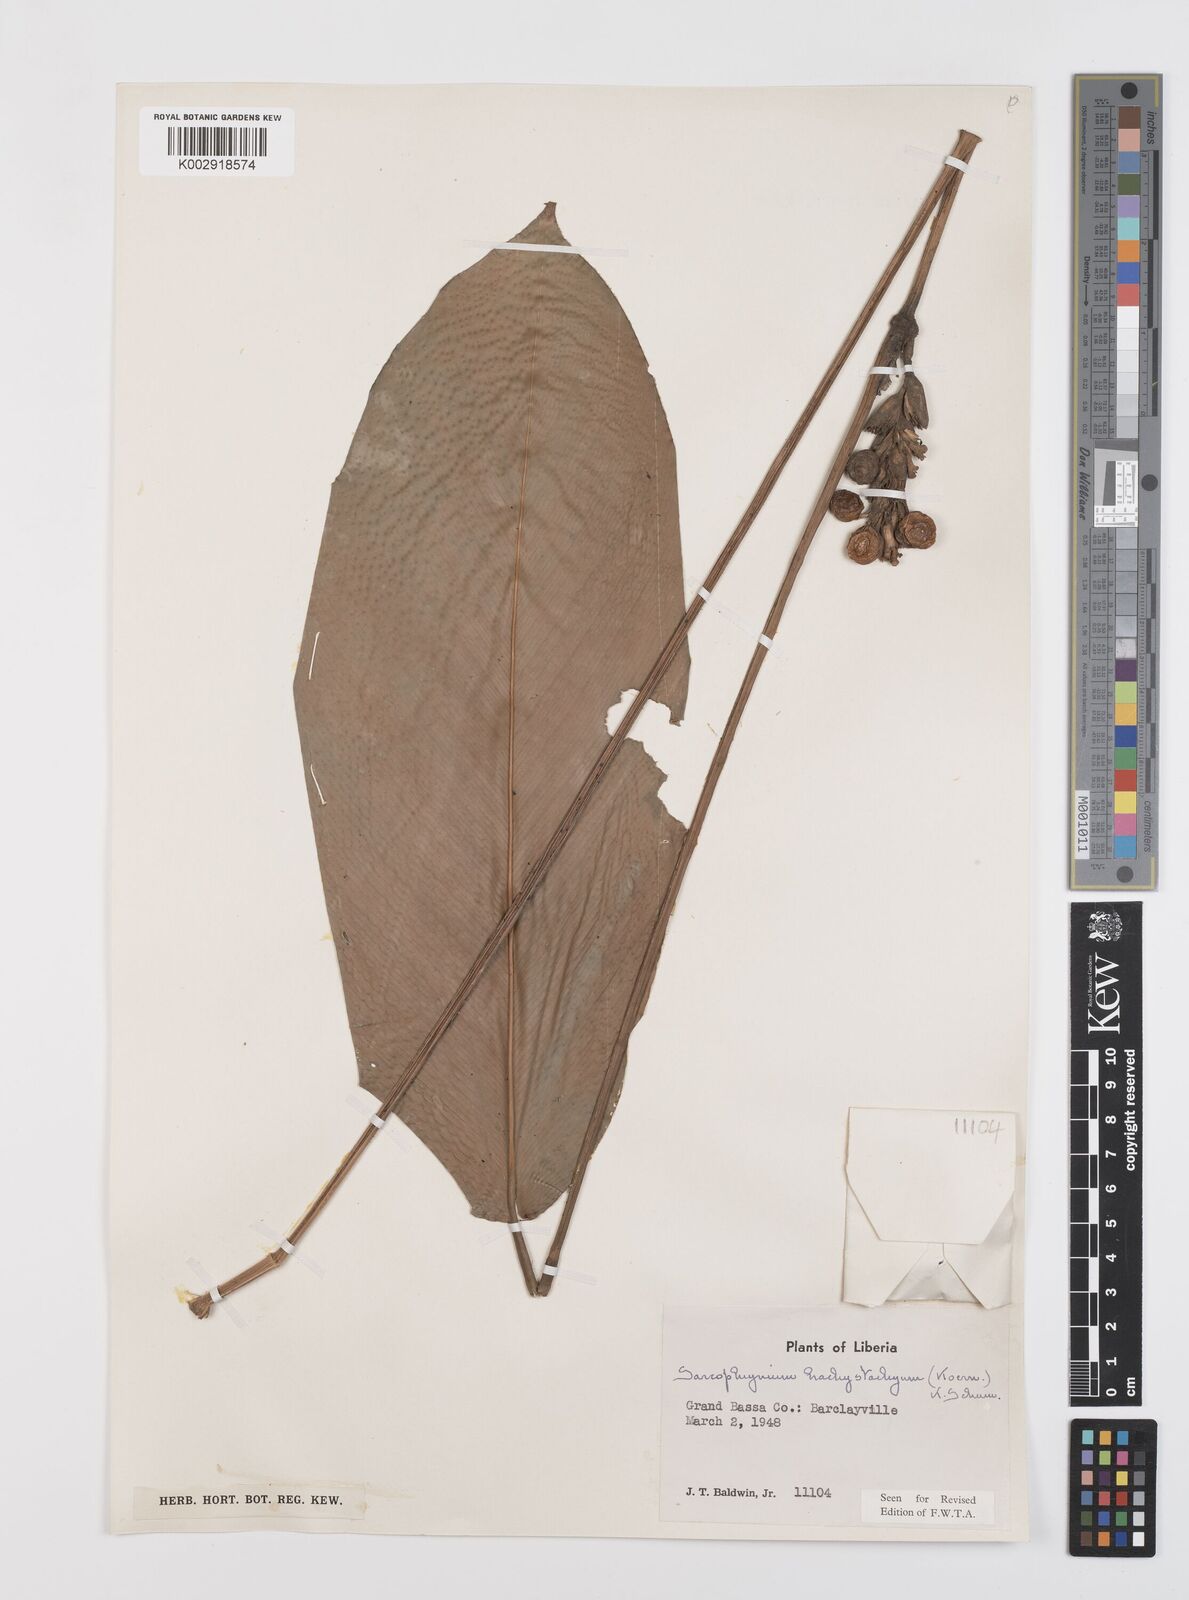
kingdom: Plantae
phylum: Tracheophyta
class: Liliopsida
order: Zingiberales
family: Marantaceae
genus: Sarcophrynium
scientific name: Sarcophrynium brachystachyum
